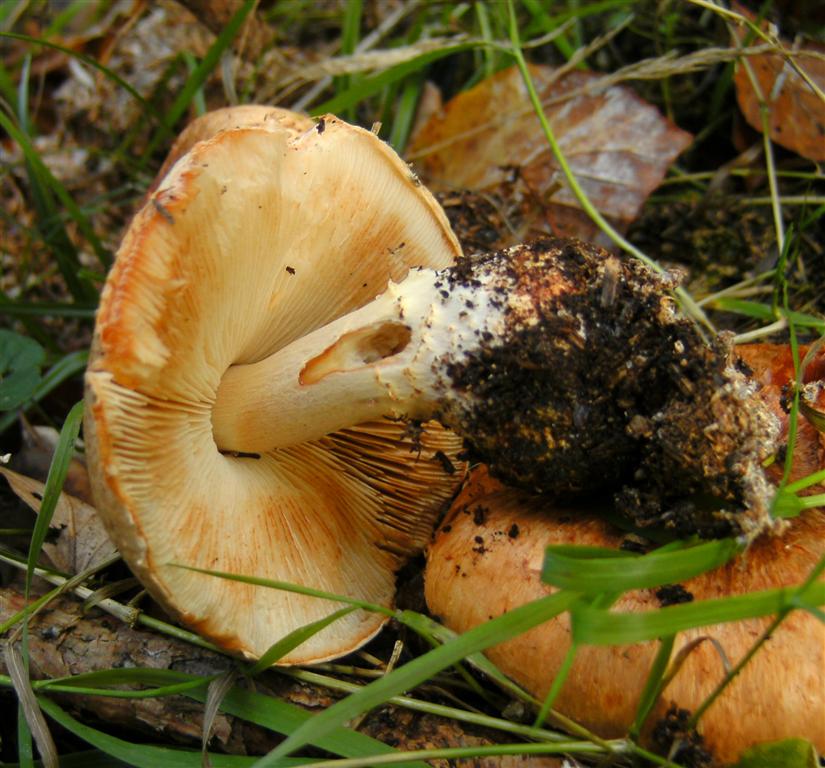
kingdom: Fungi
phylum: Basidiomycota
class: Agaricomycetes
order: Agaricales
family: Agaricaceae
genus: Lepiota
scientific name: Lepiota ochraceofulva
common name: sødtduftende parasolhat
